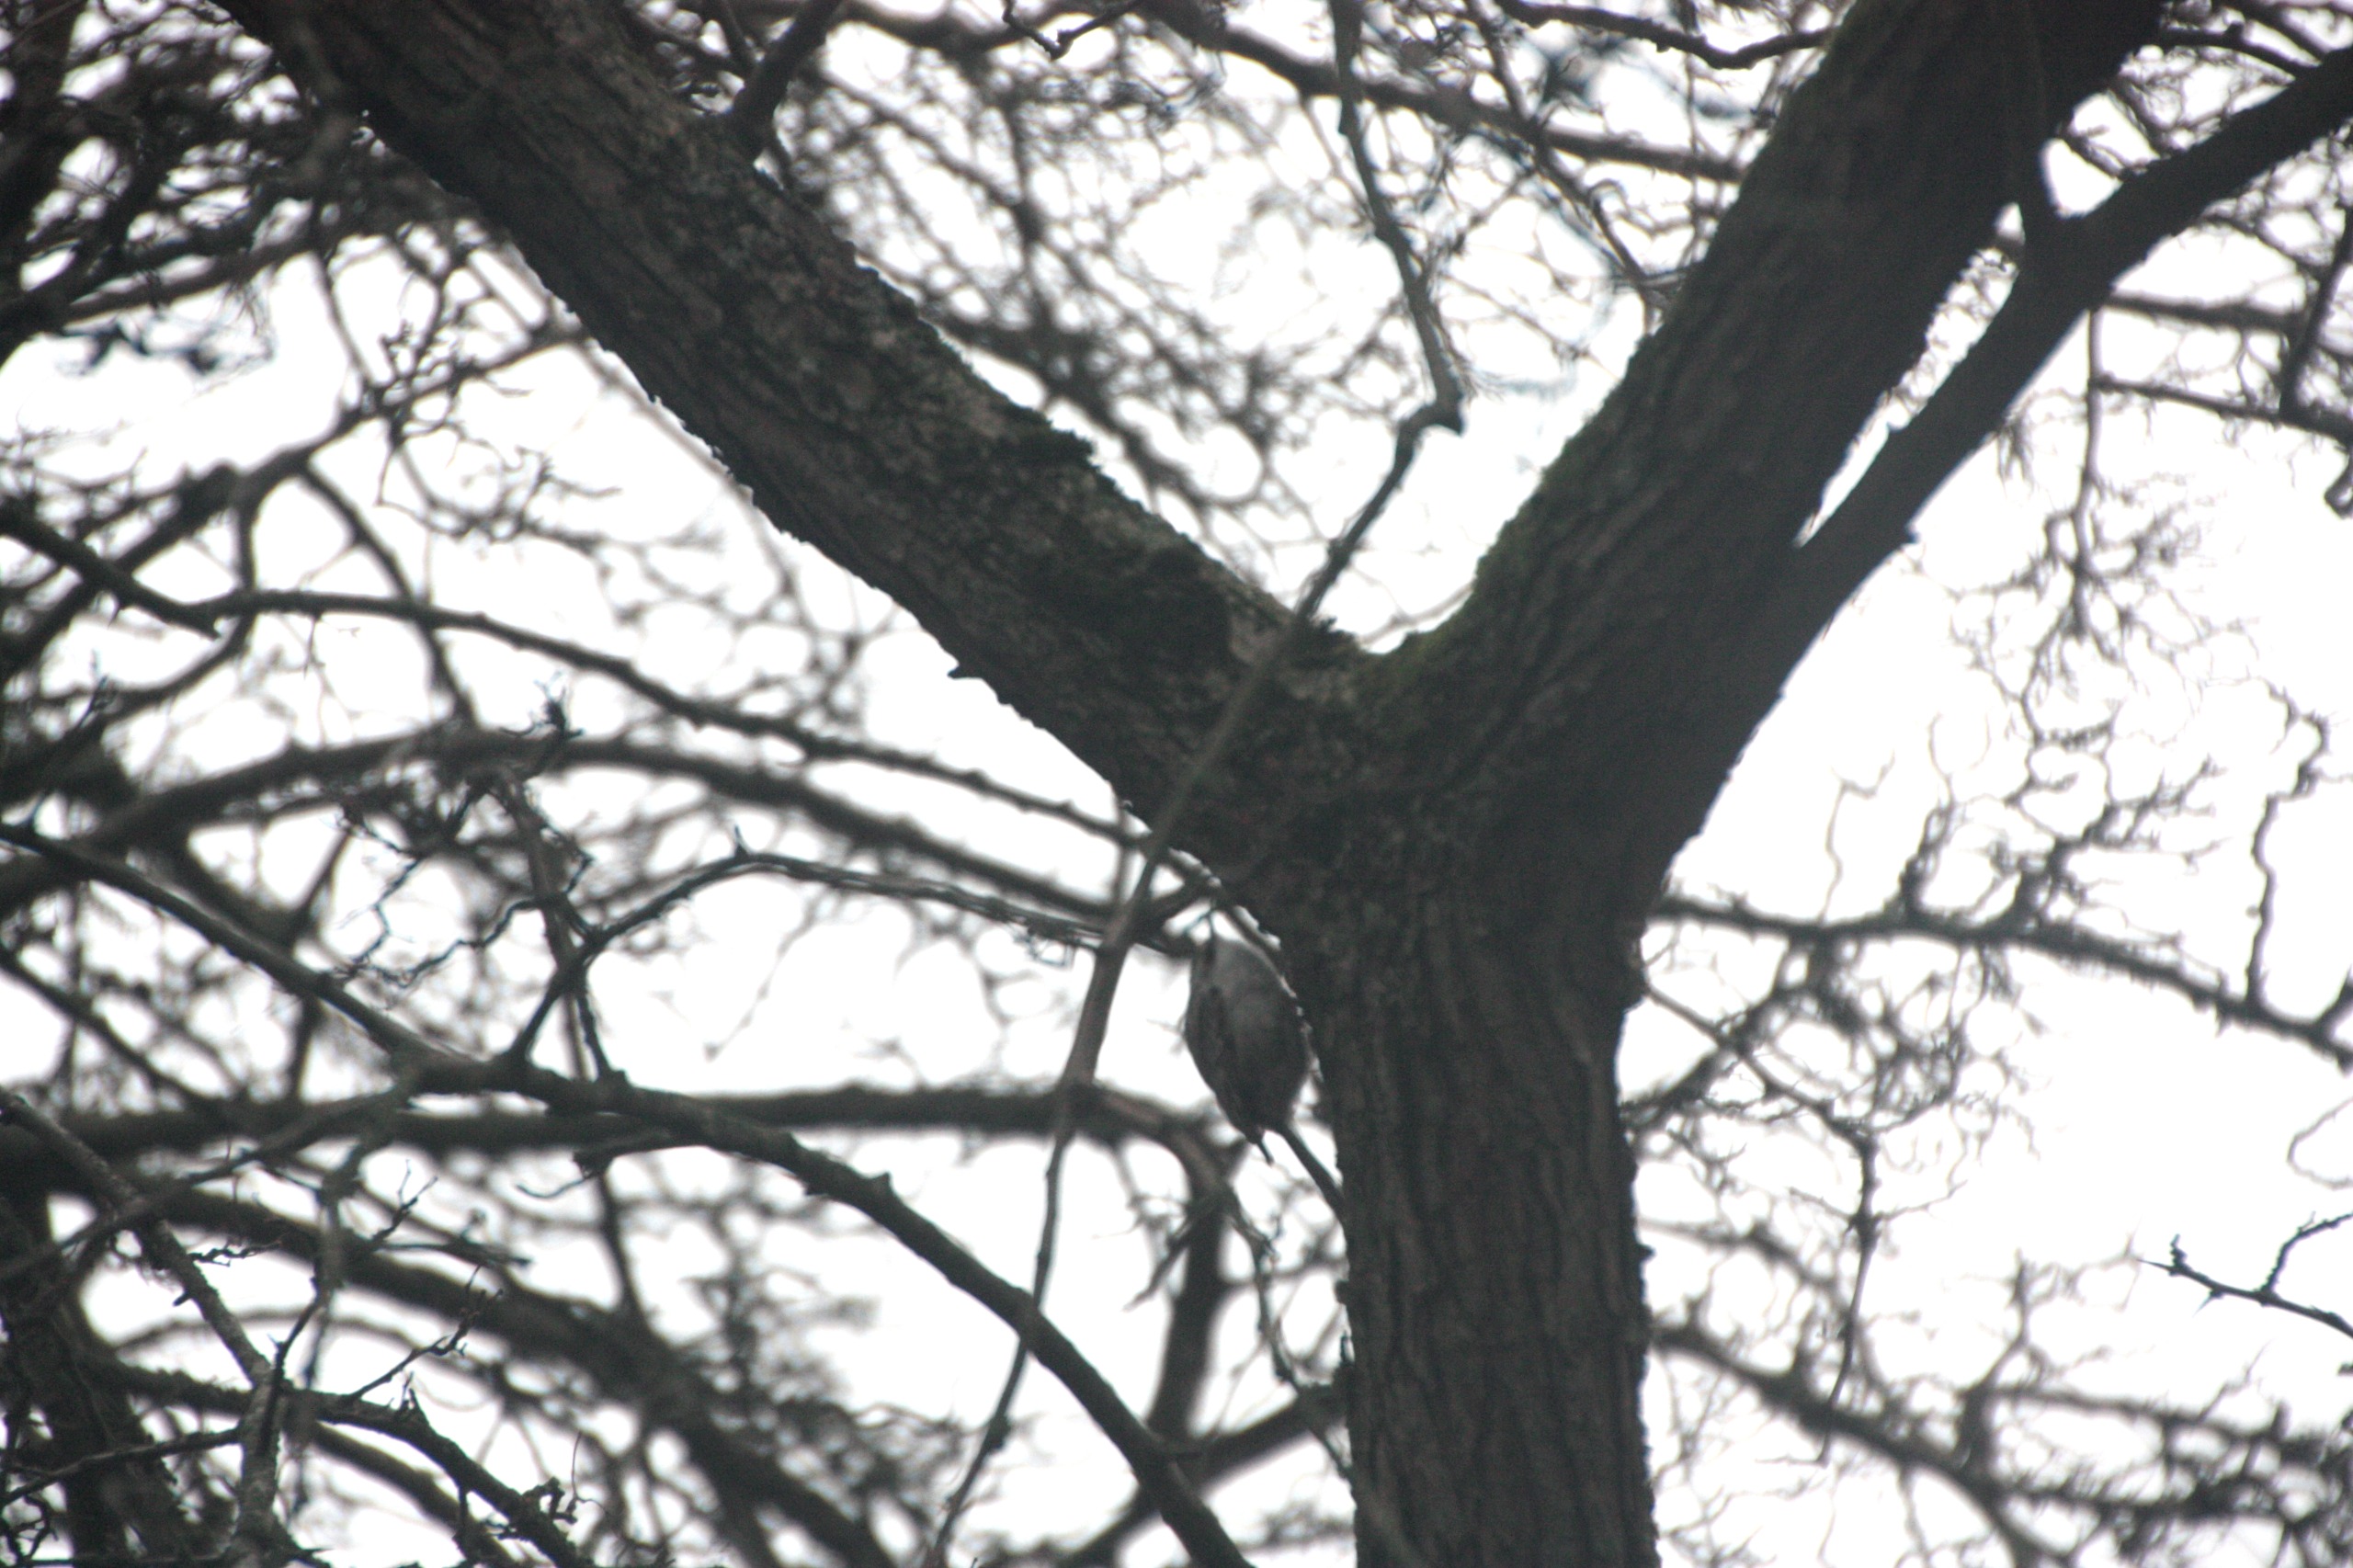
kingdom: Animalia
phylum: Chordata
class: Aves
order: Passeriformes
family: Certhiidae
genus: Certhia
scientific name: Certhia familiaris
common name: Træløber
